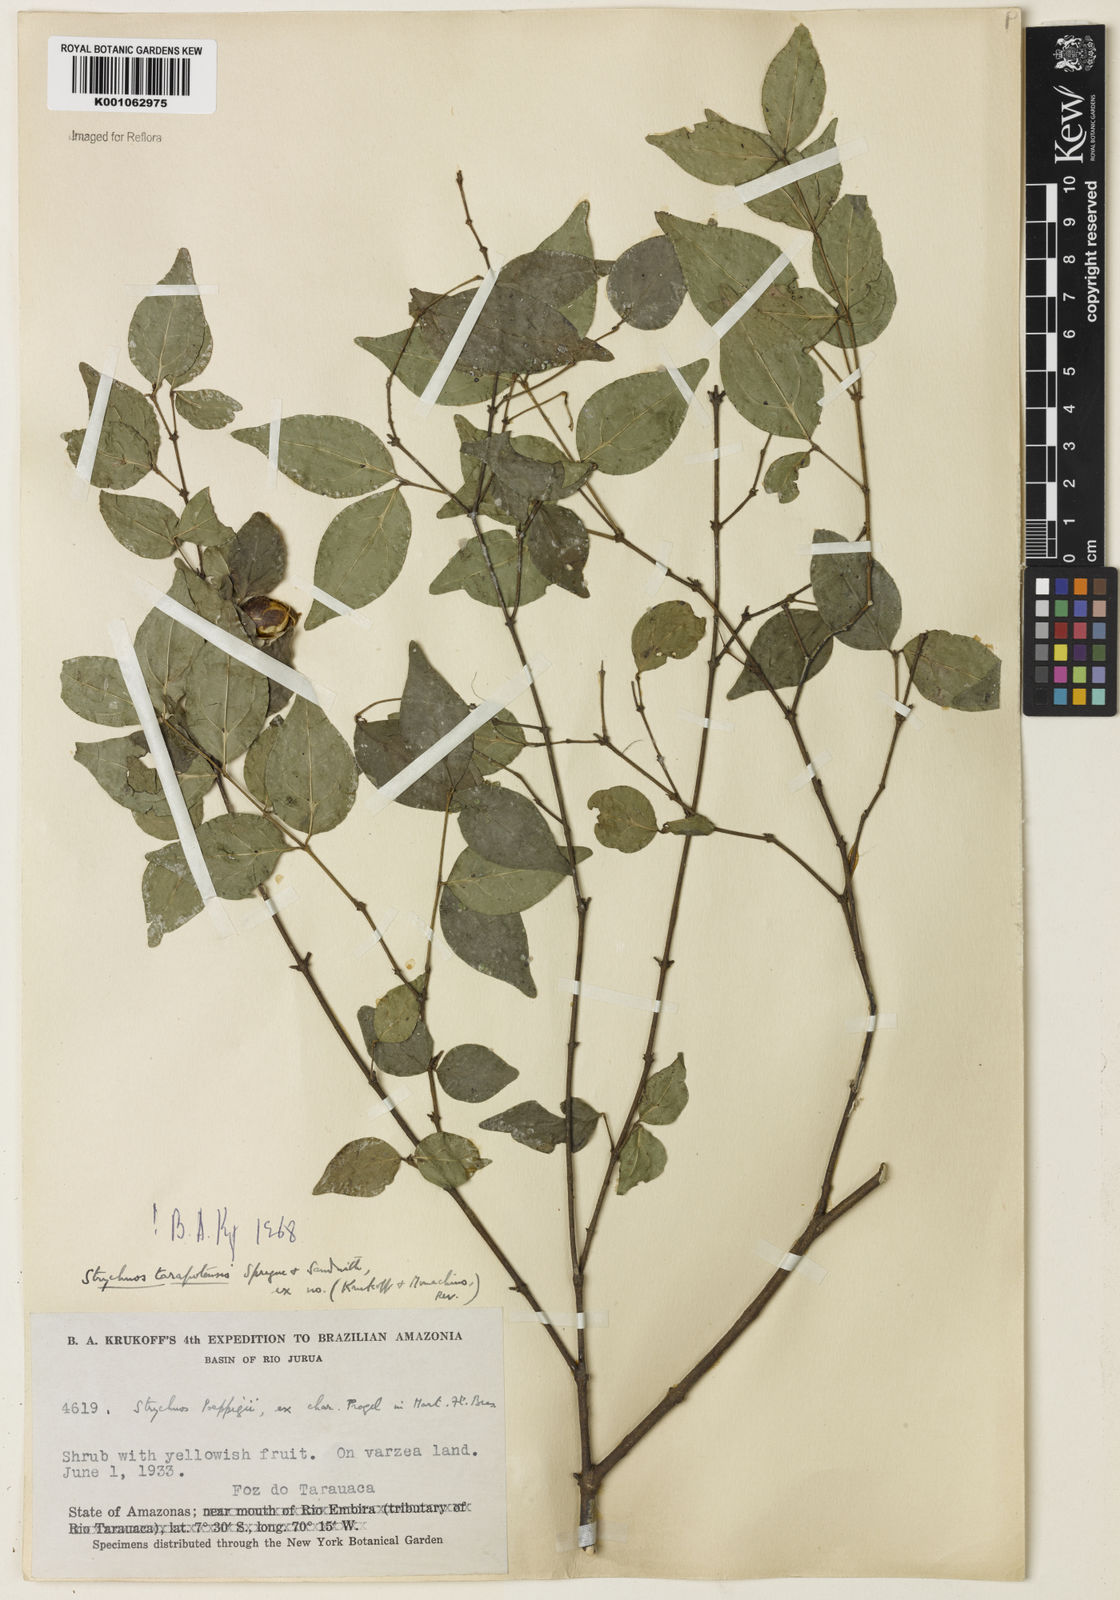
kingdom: Plantae
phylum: Tracheophyta
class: Magnoliopsida
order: Gentianales
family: Loganiaceae
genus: Strychnos
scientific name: Strychnos tarapotensis
